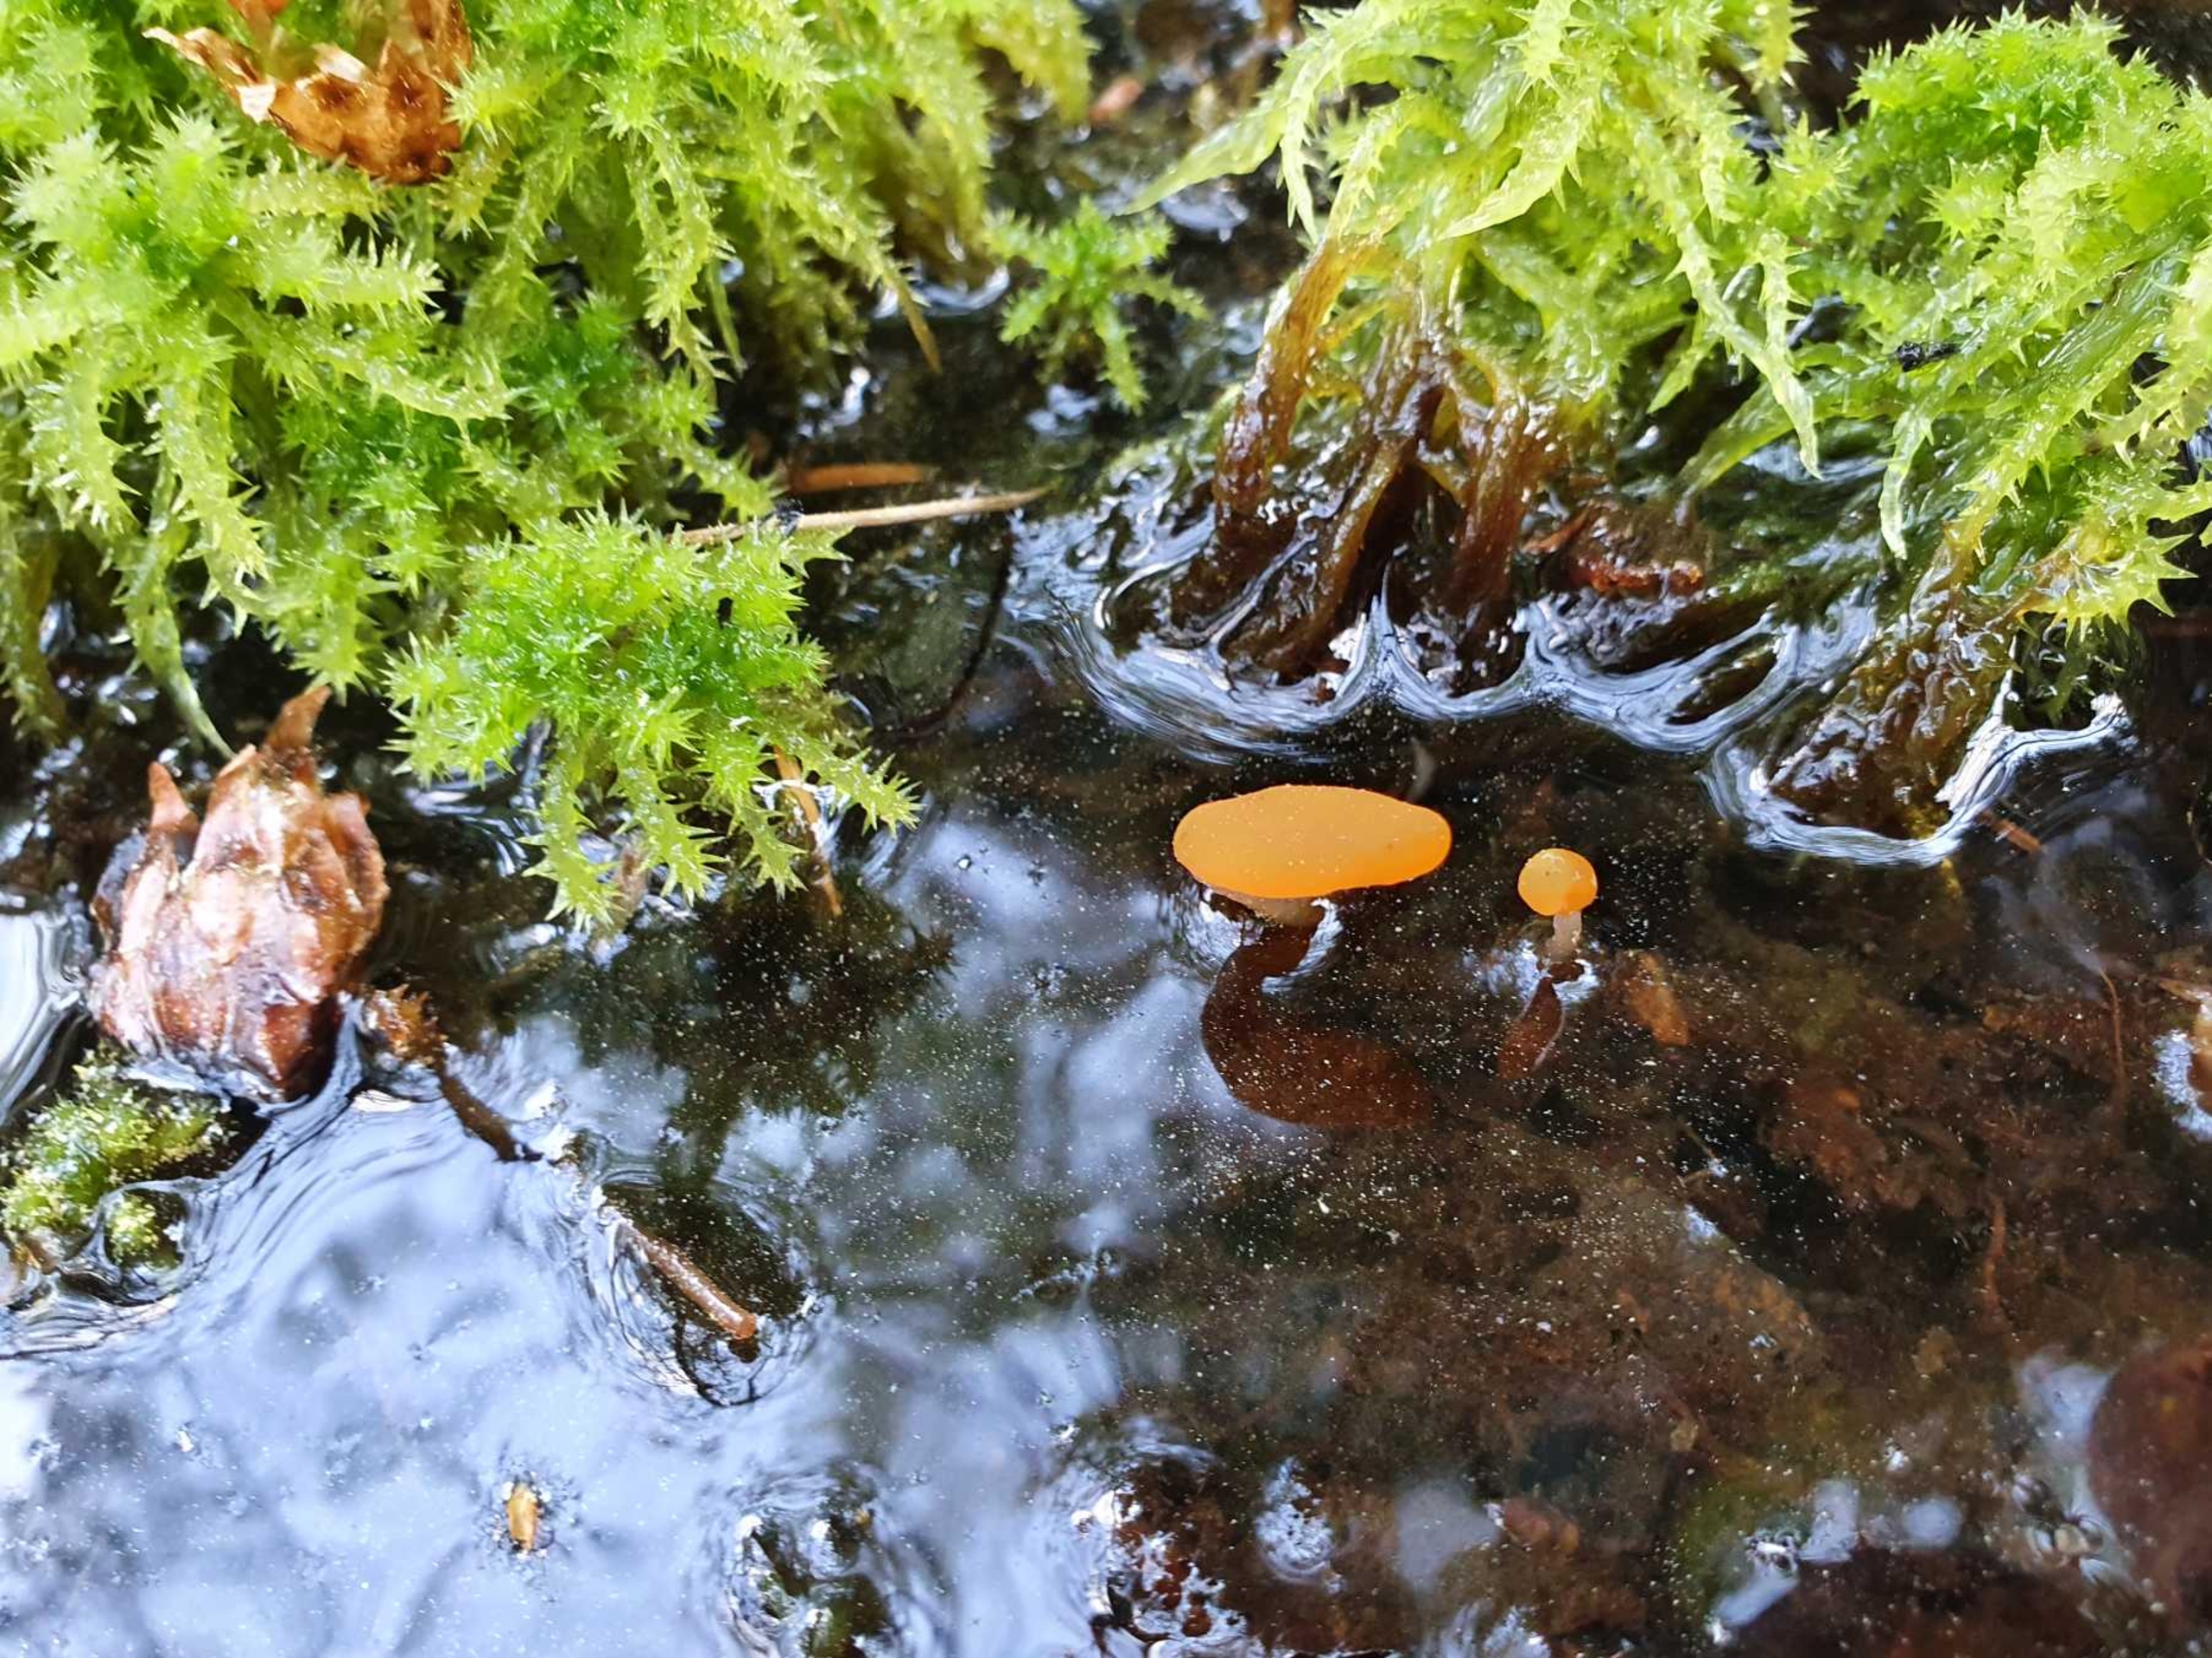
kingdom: Fungi
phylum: Ascomycota
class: Leotiomycetes
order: Helotiales
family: Cenangiaceae
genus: Mitrula
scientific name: Mitrula paludosa
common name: Gul nøkketunge
